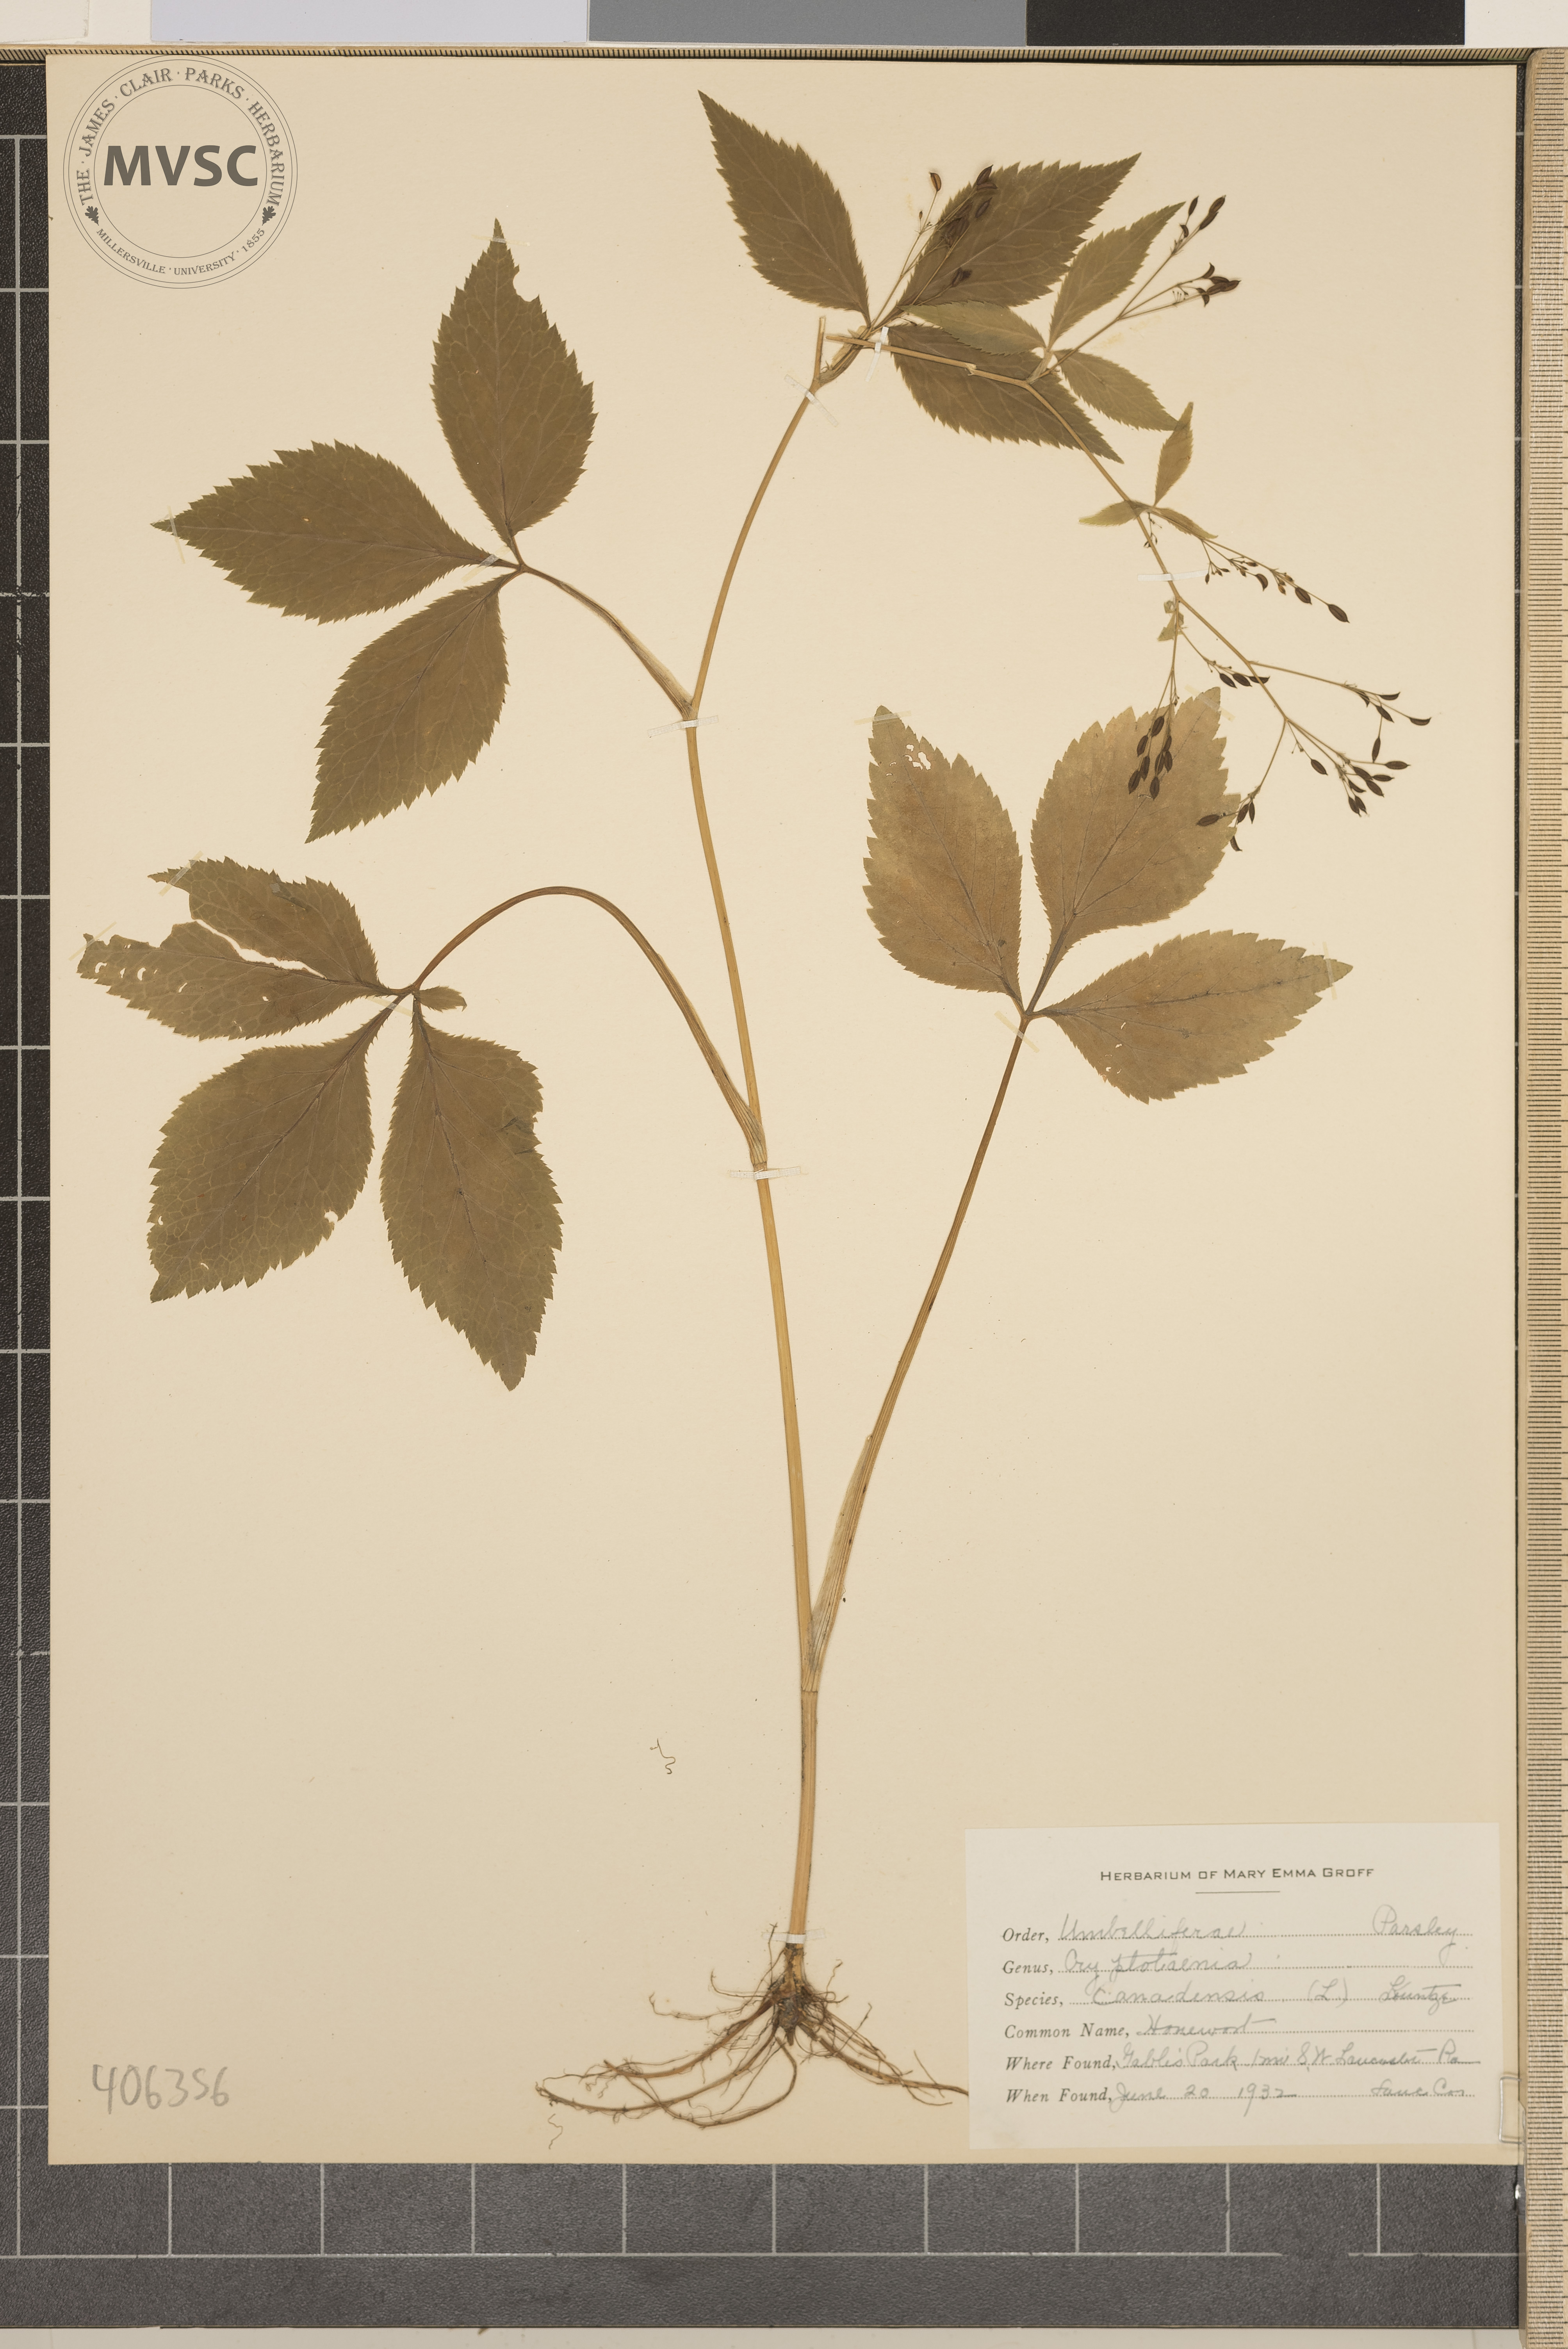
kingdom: Plantae
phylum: Tracheophyta
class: Magnoliopsida
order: Apiales
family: Apiaceae
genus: Cryptotaenia
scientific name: Cryptotaenia canadensis
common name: Honewort
